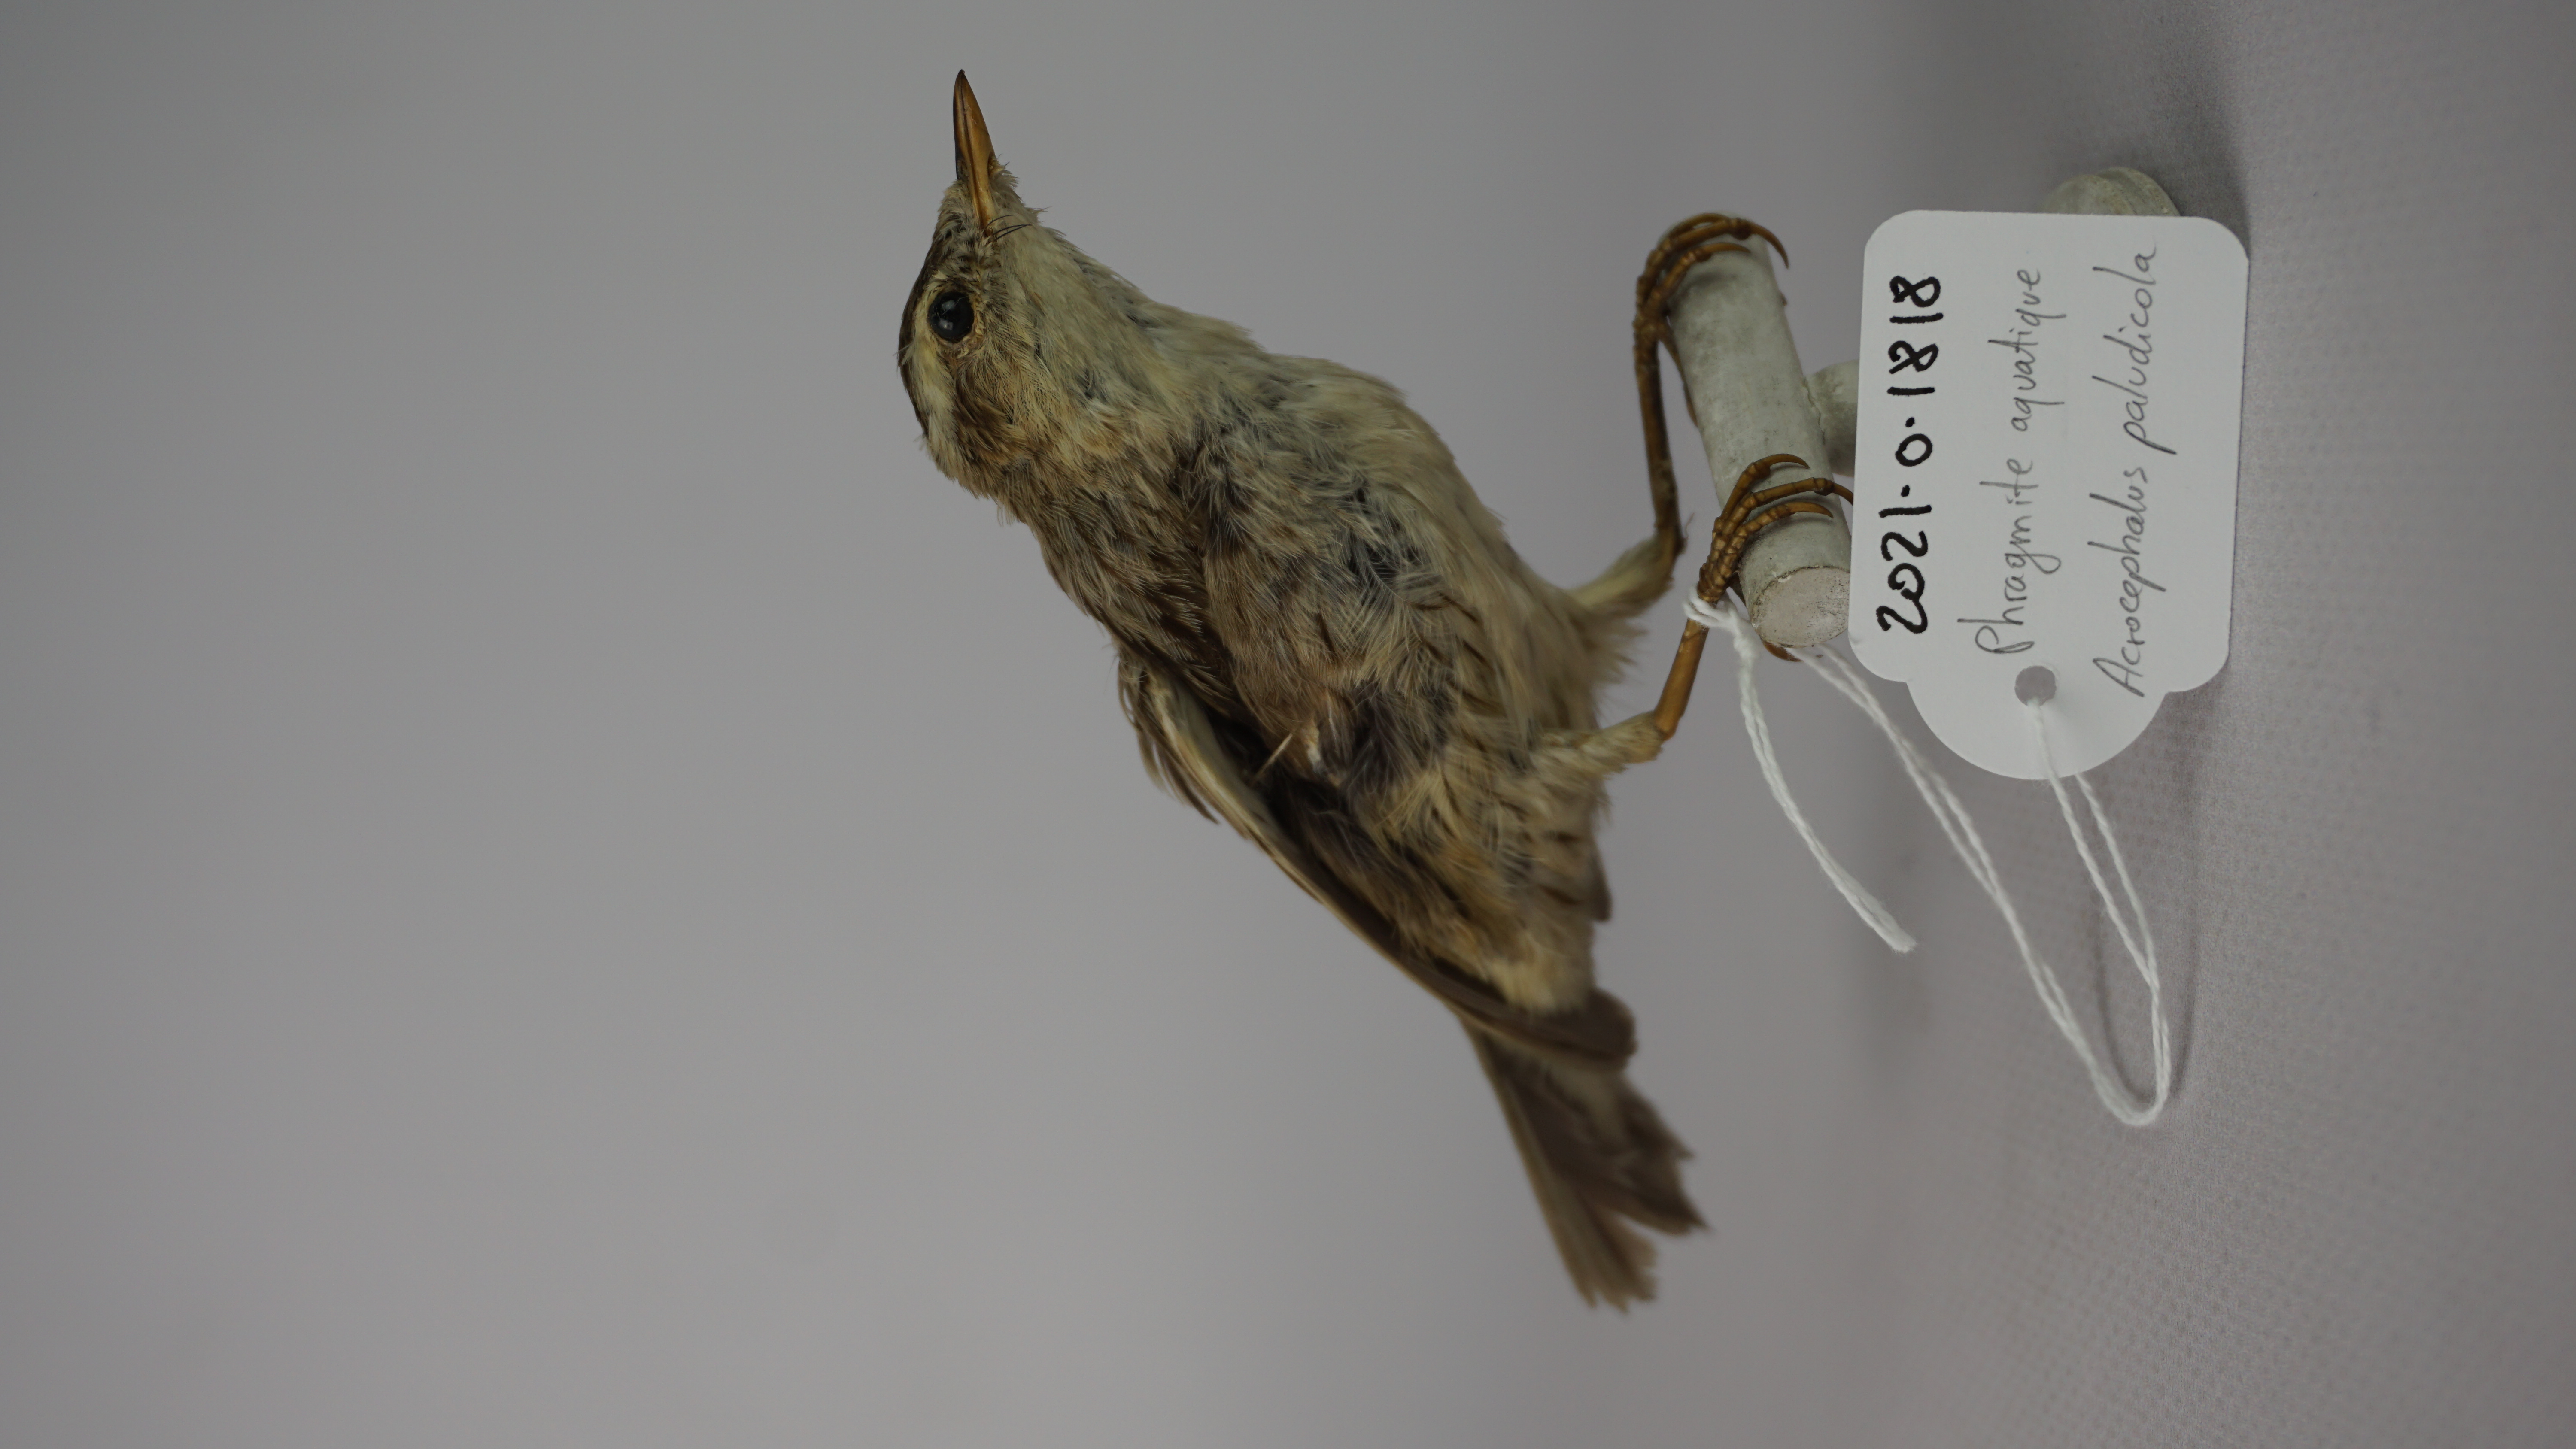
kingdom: Animalia
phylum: Chordata
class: Aves
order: Passeriformes
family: Acrocephalidae
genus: Acrocephalus
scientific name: Acrocephalus paludicola
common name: Aquatic warbler
